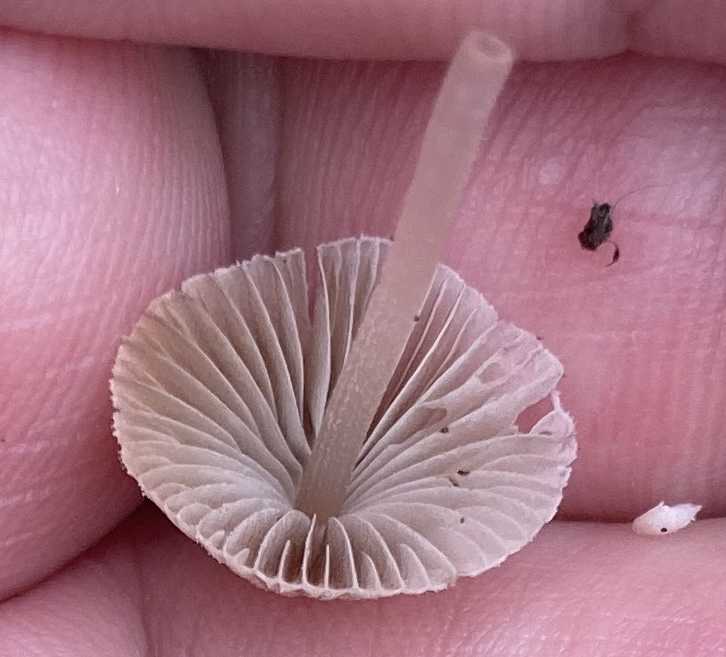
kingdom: Fungi
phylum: Basidiomycota
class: Agaricomycetes
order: Agaricales
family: Psathyrellaceae
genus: Coprinellus
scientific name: Coprinellus disseminatus
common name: bredsået blækhat
